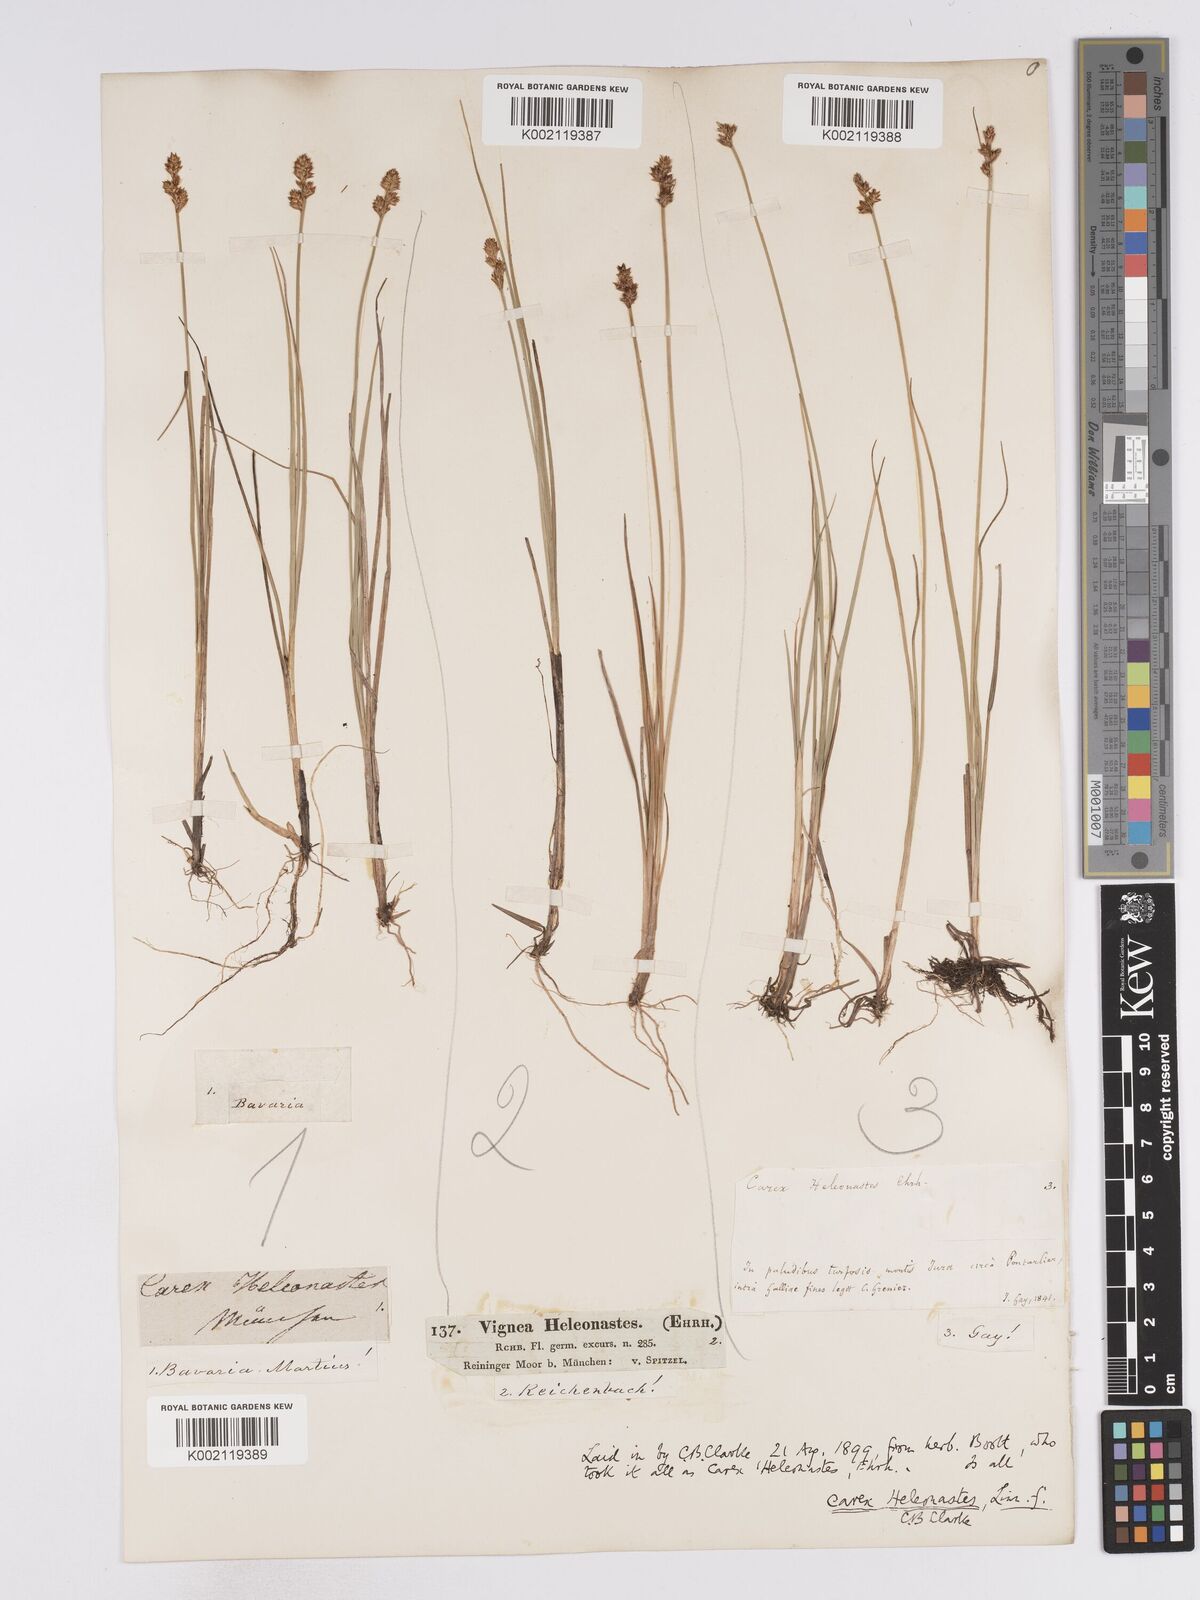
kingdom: Plantae
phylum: Tracheophyta
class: Liliopsida
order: Poales
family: Cyperaceae
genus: Carex
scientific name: Carex heleonastes
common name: Hudson bay sedge
